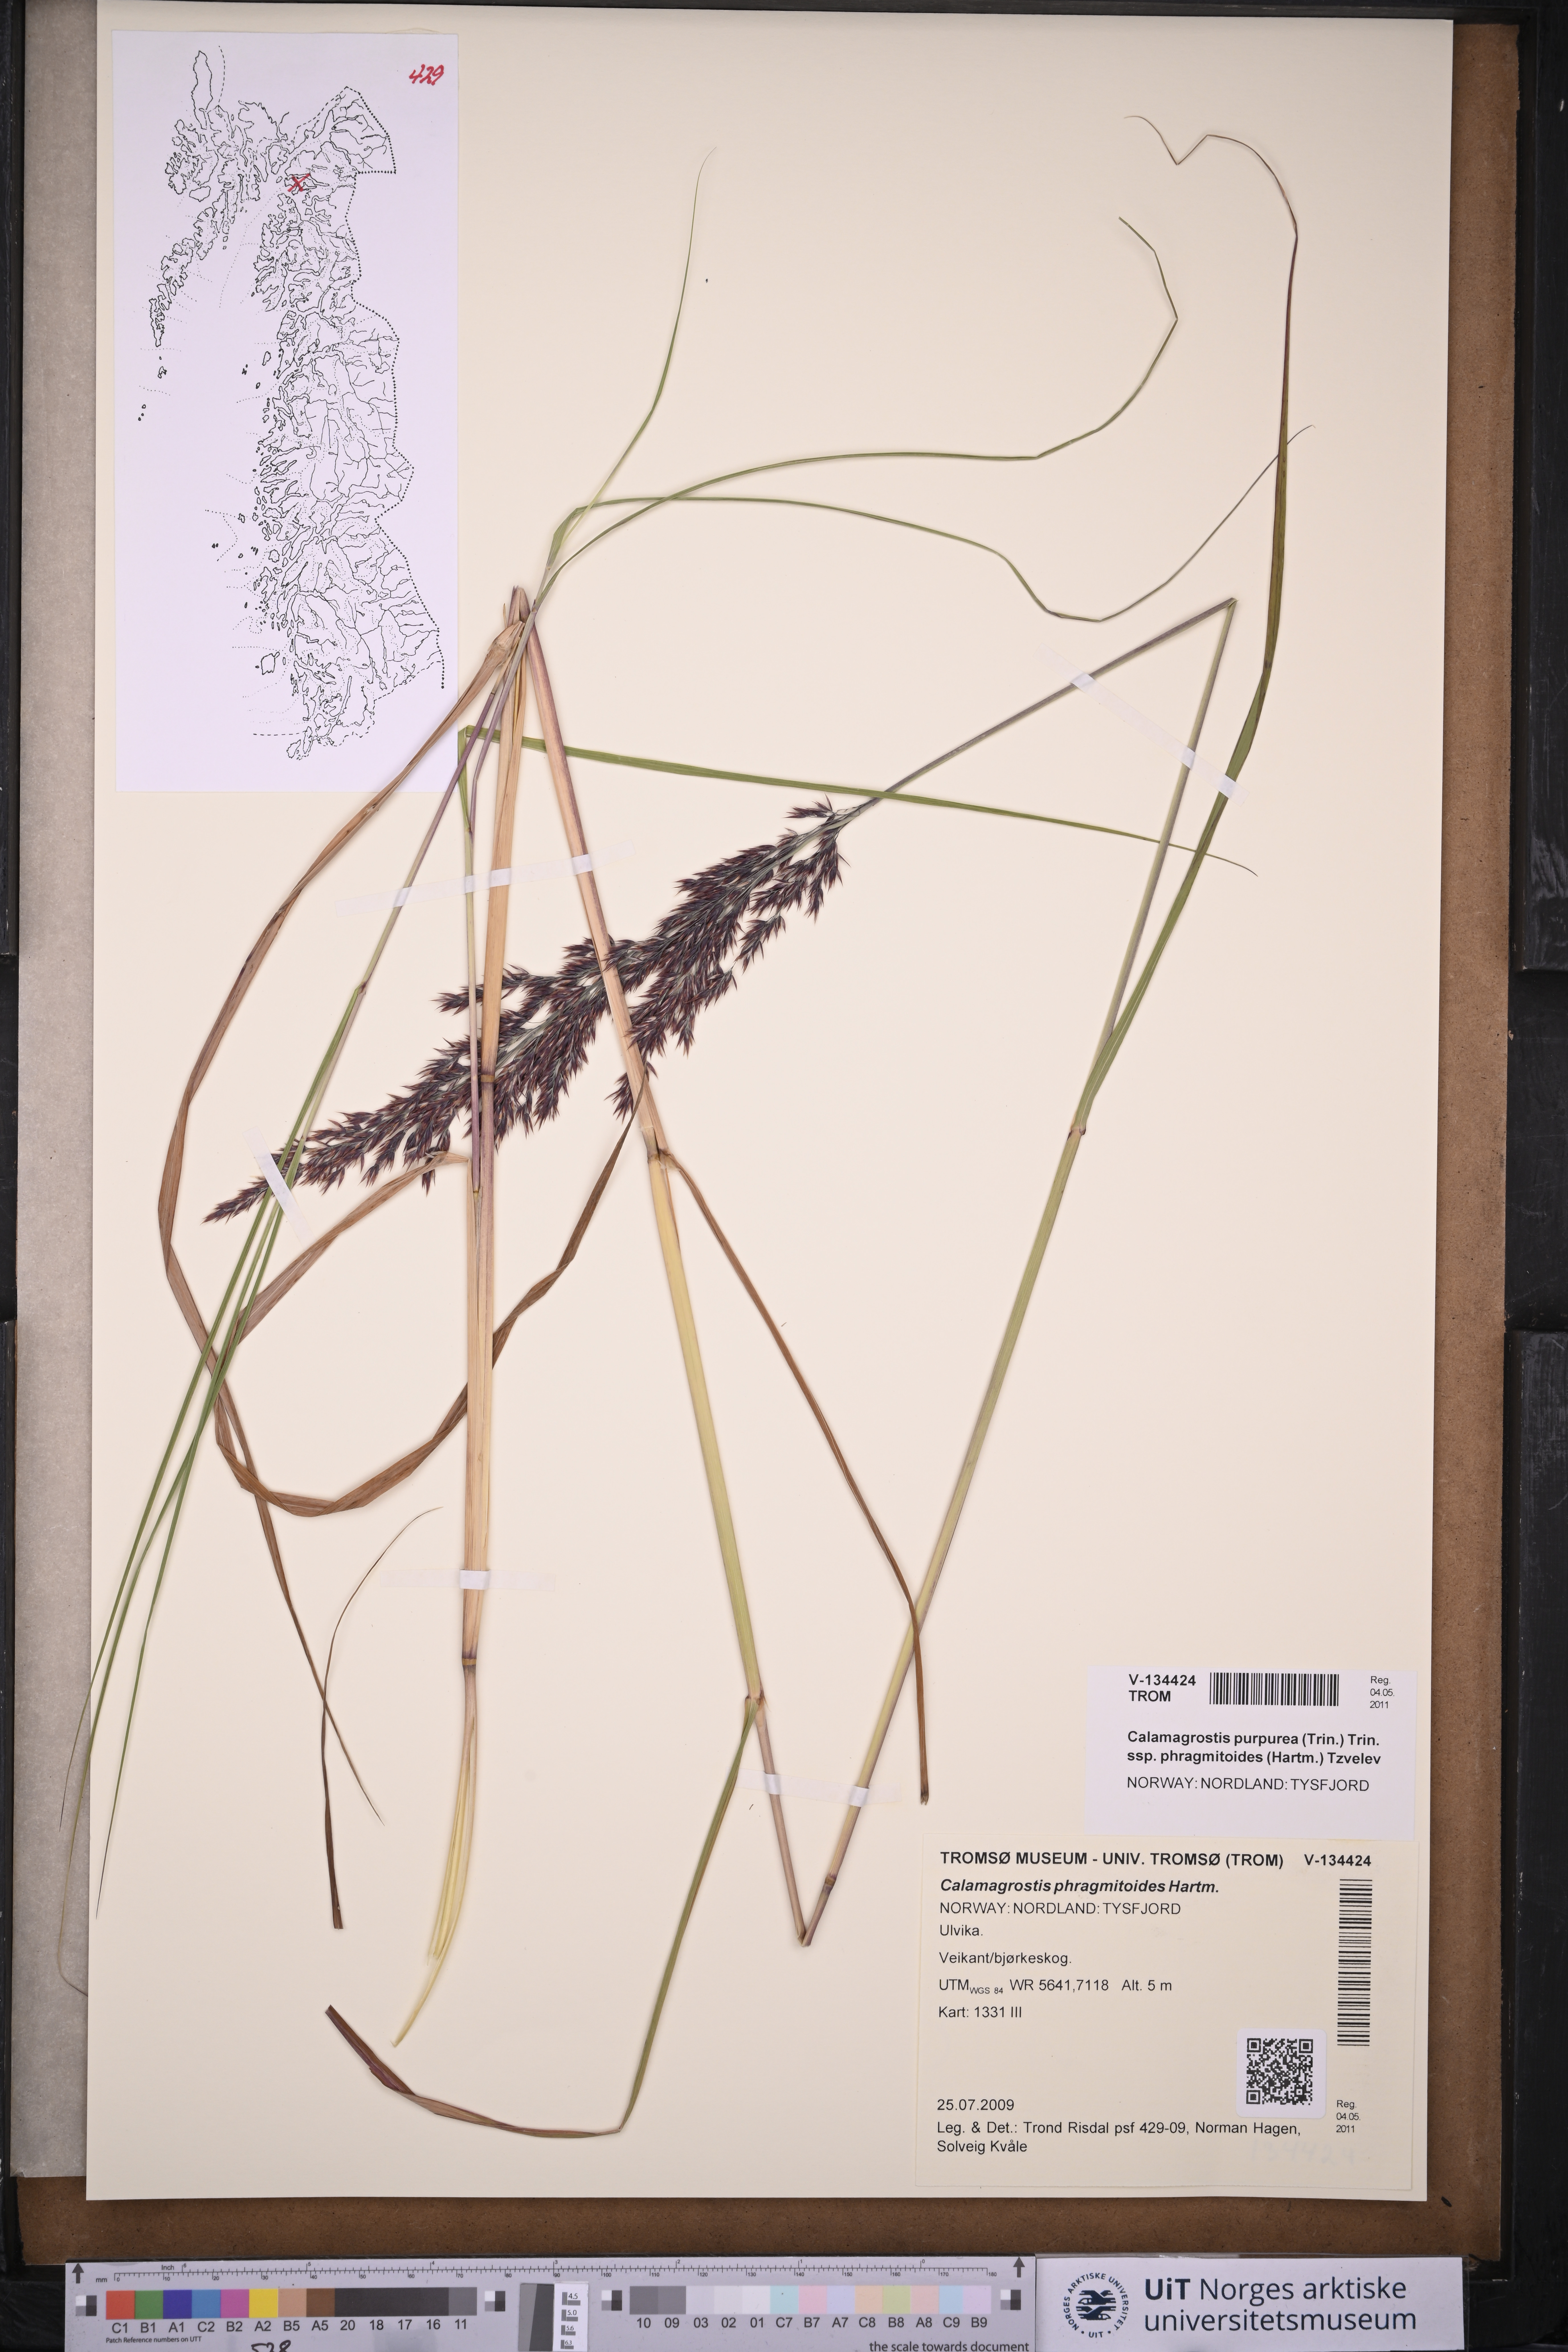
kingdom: Plantae
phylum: Tracheophyta
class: Liliopsida
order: Poales
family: Poaceae
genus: Calamagrostis
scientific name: Calamagrostis purpurea
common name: Scandinavian small-reed
